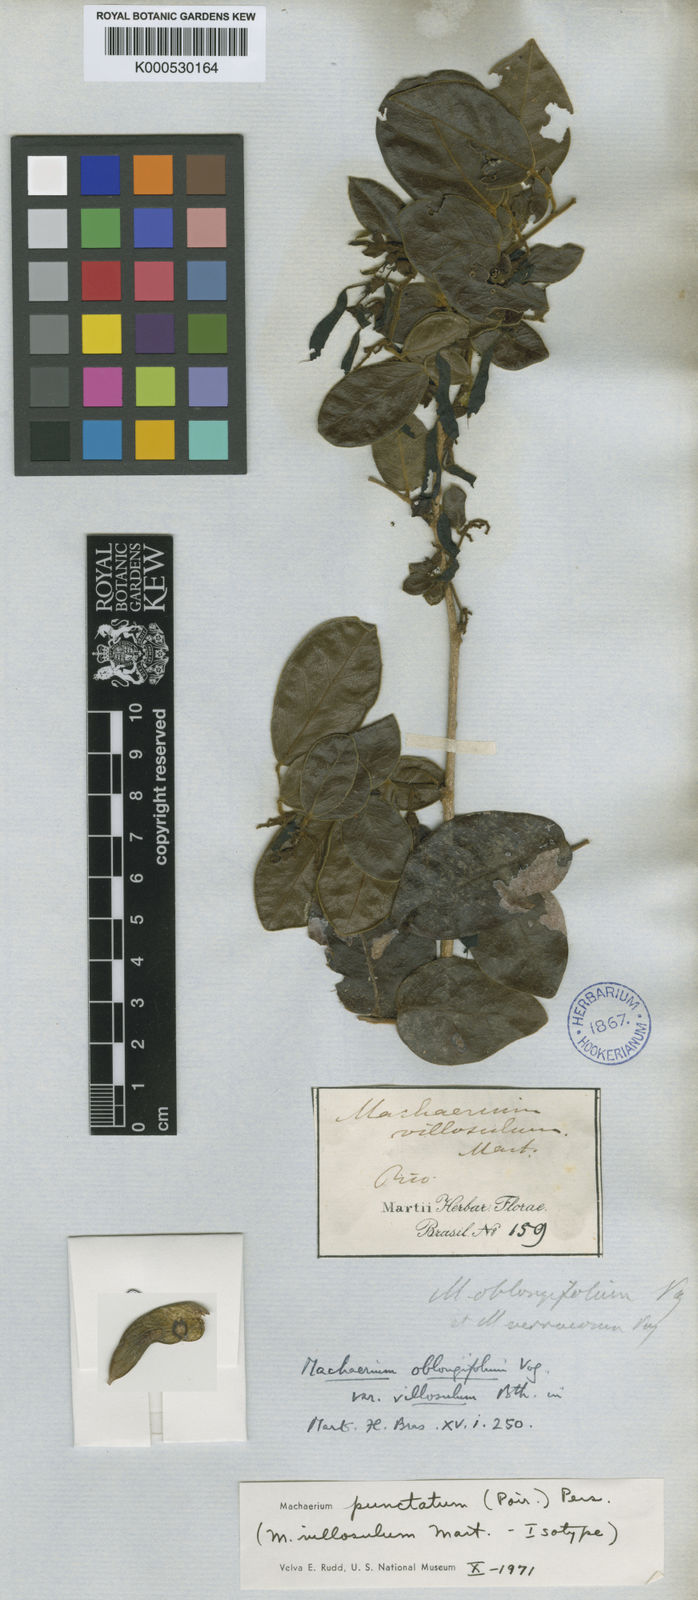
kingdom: Plantae
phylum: Tracheophyta
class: Magnoliopsida
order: Fabales
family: Fabaceae
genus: Machaerium
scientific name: Machaerium oblongifolium
